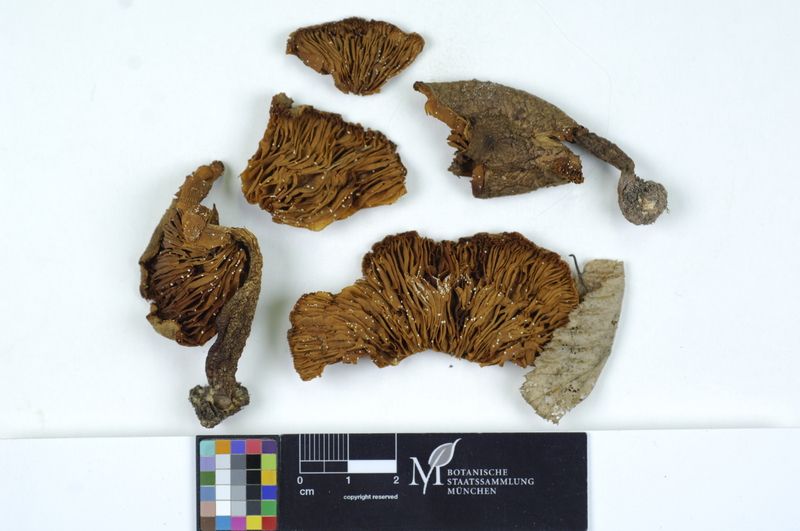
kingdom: Fungi
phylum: Basidiomycota
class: Agaricomycetes
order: Agaricales
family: Tricholomataceae
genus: Tricholoma
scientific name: Tricholoma scalpturatum
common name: Yellowing knight
